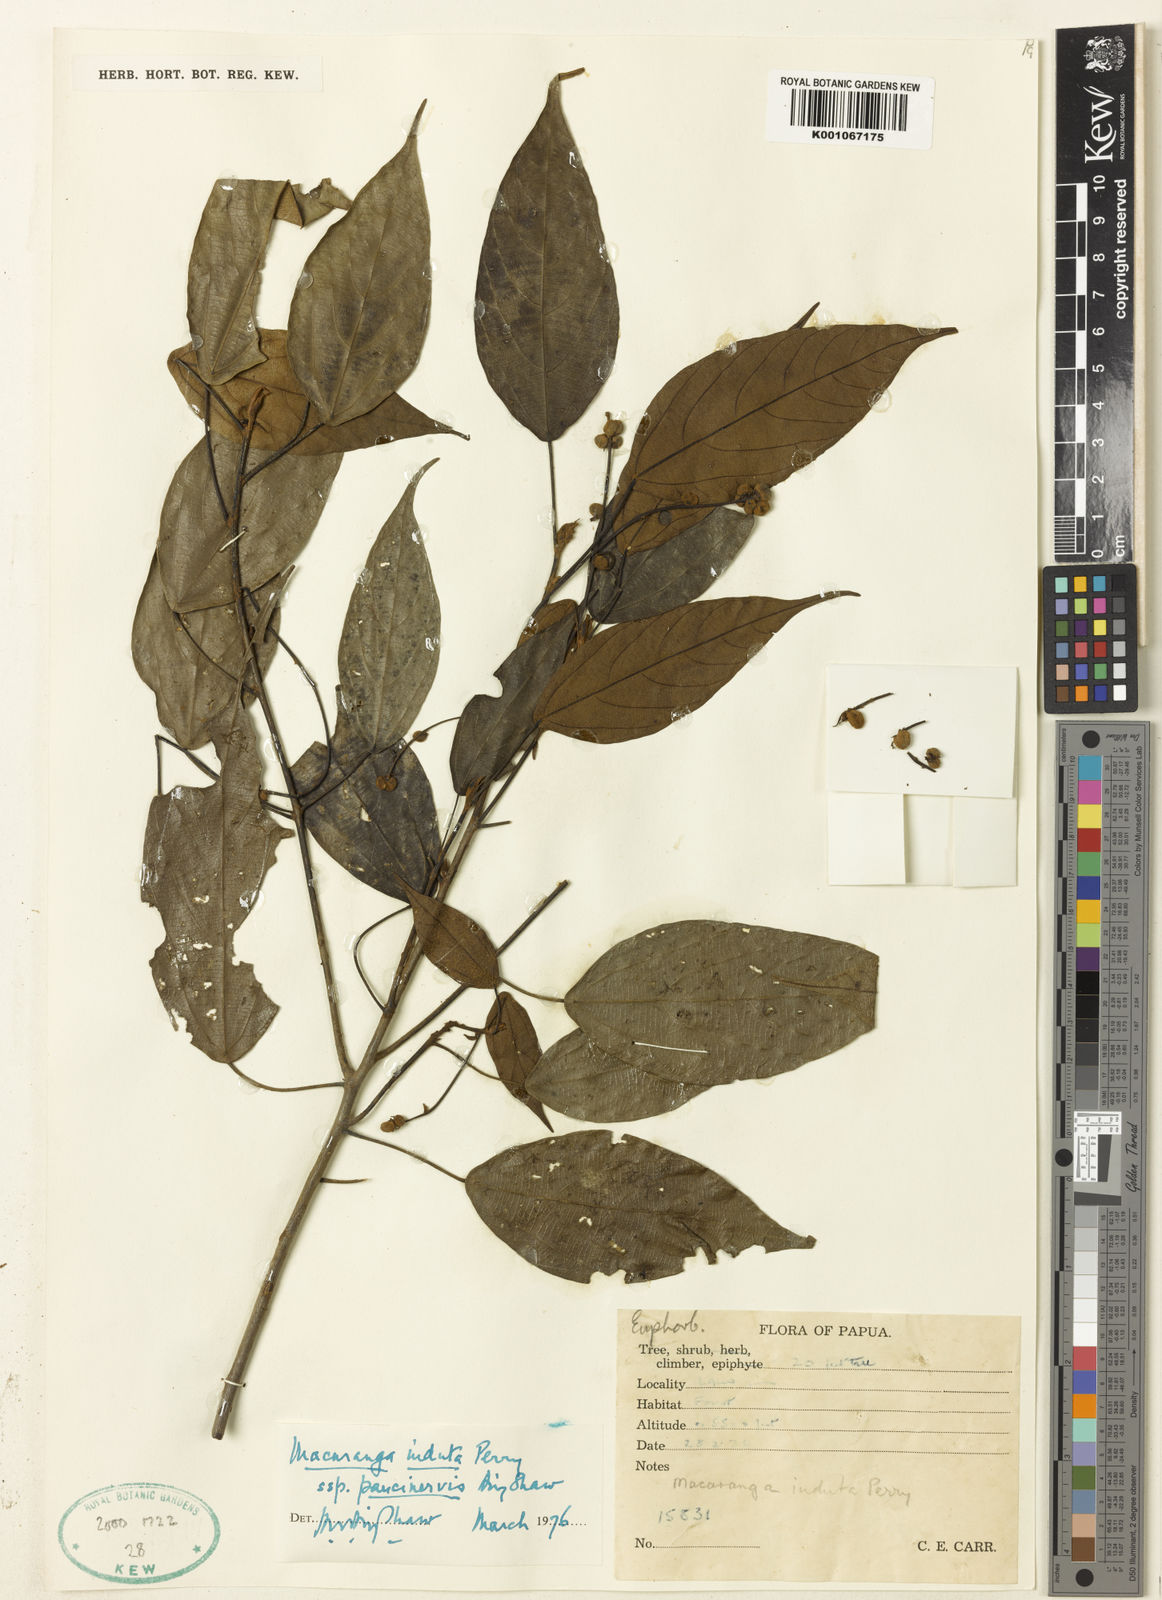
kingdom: Plantae
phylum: Tracheophyta
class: Magnoliopsida
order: Malpighiales
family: Euphorbiaceae
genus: Macaranga
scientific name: Macaranga induta
